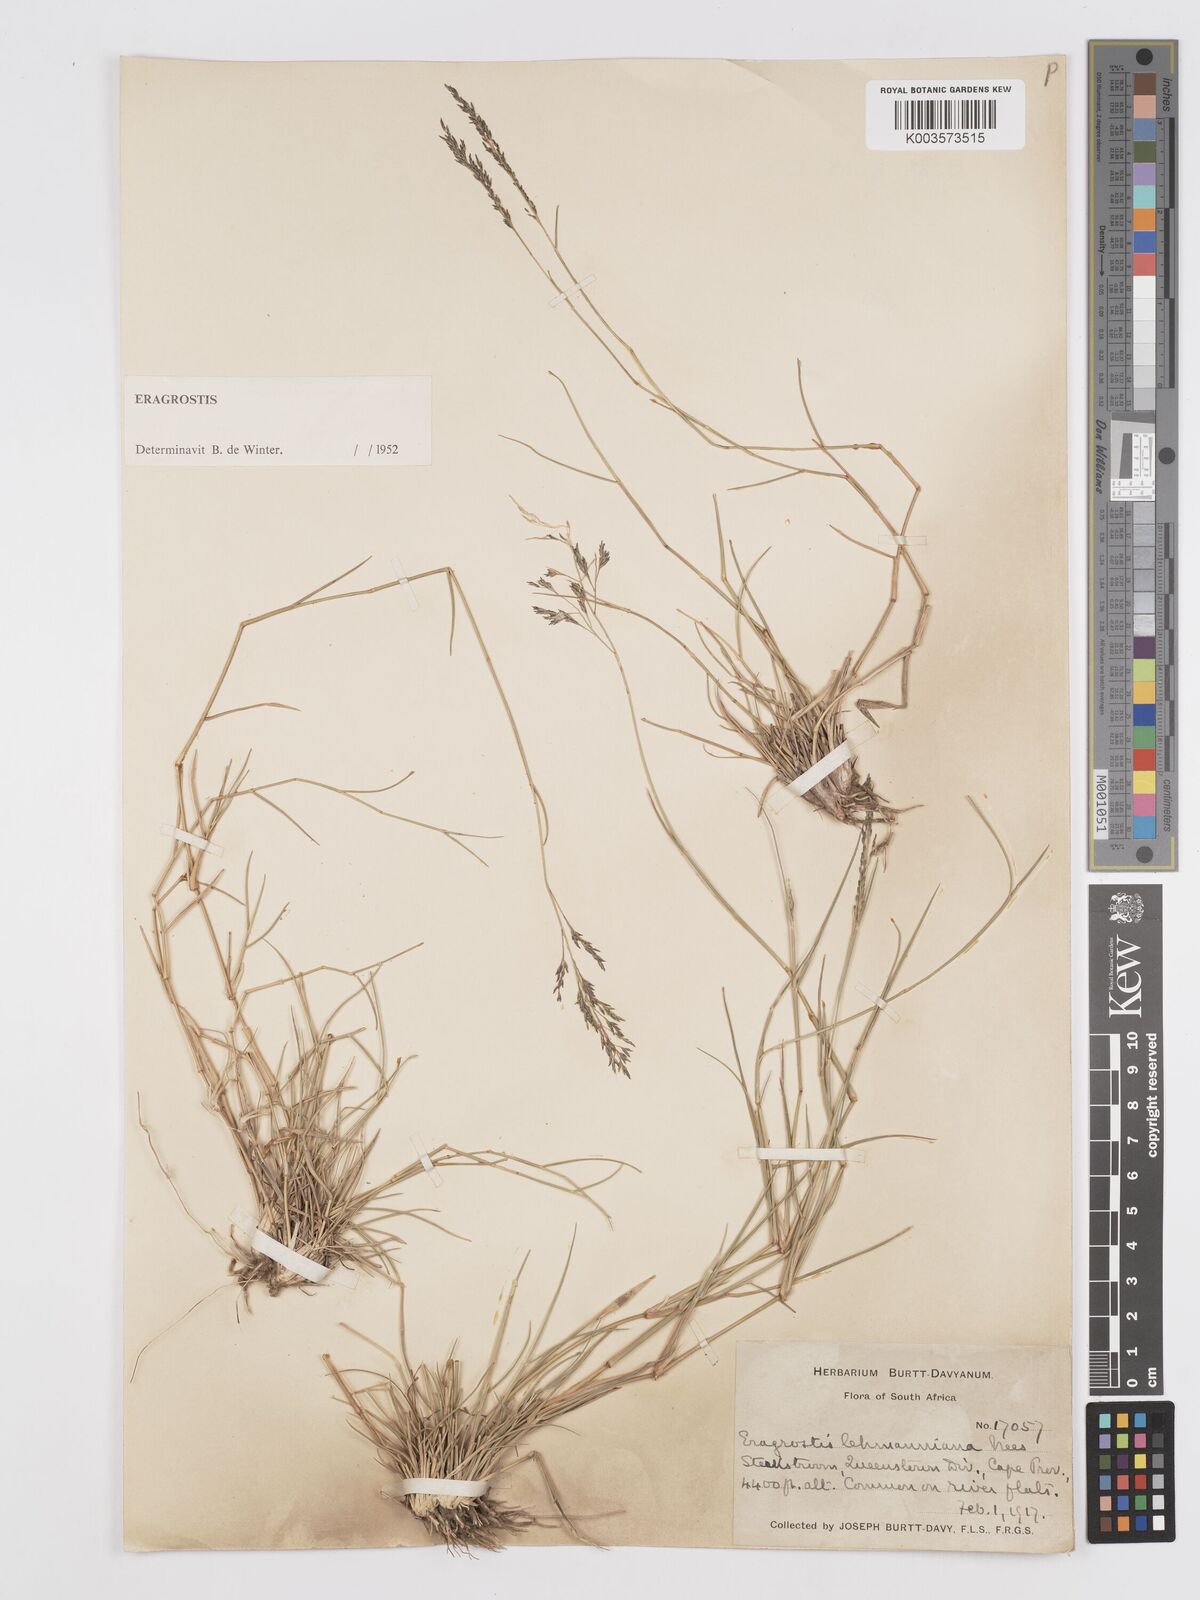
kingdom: Plantae
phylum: Tracheophyta
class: Liliopsida
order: Poales
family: Poaceae
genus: Eragrostis
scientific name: Eragrostis lehmanniana
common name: Lehmann lovegrass
